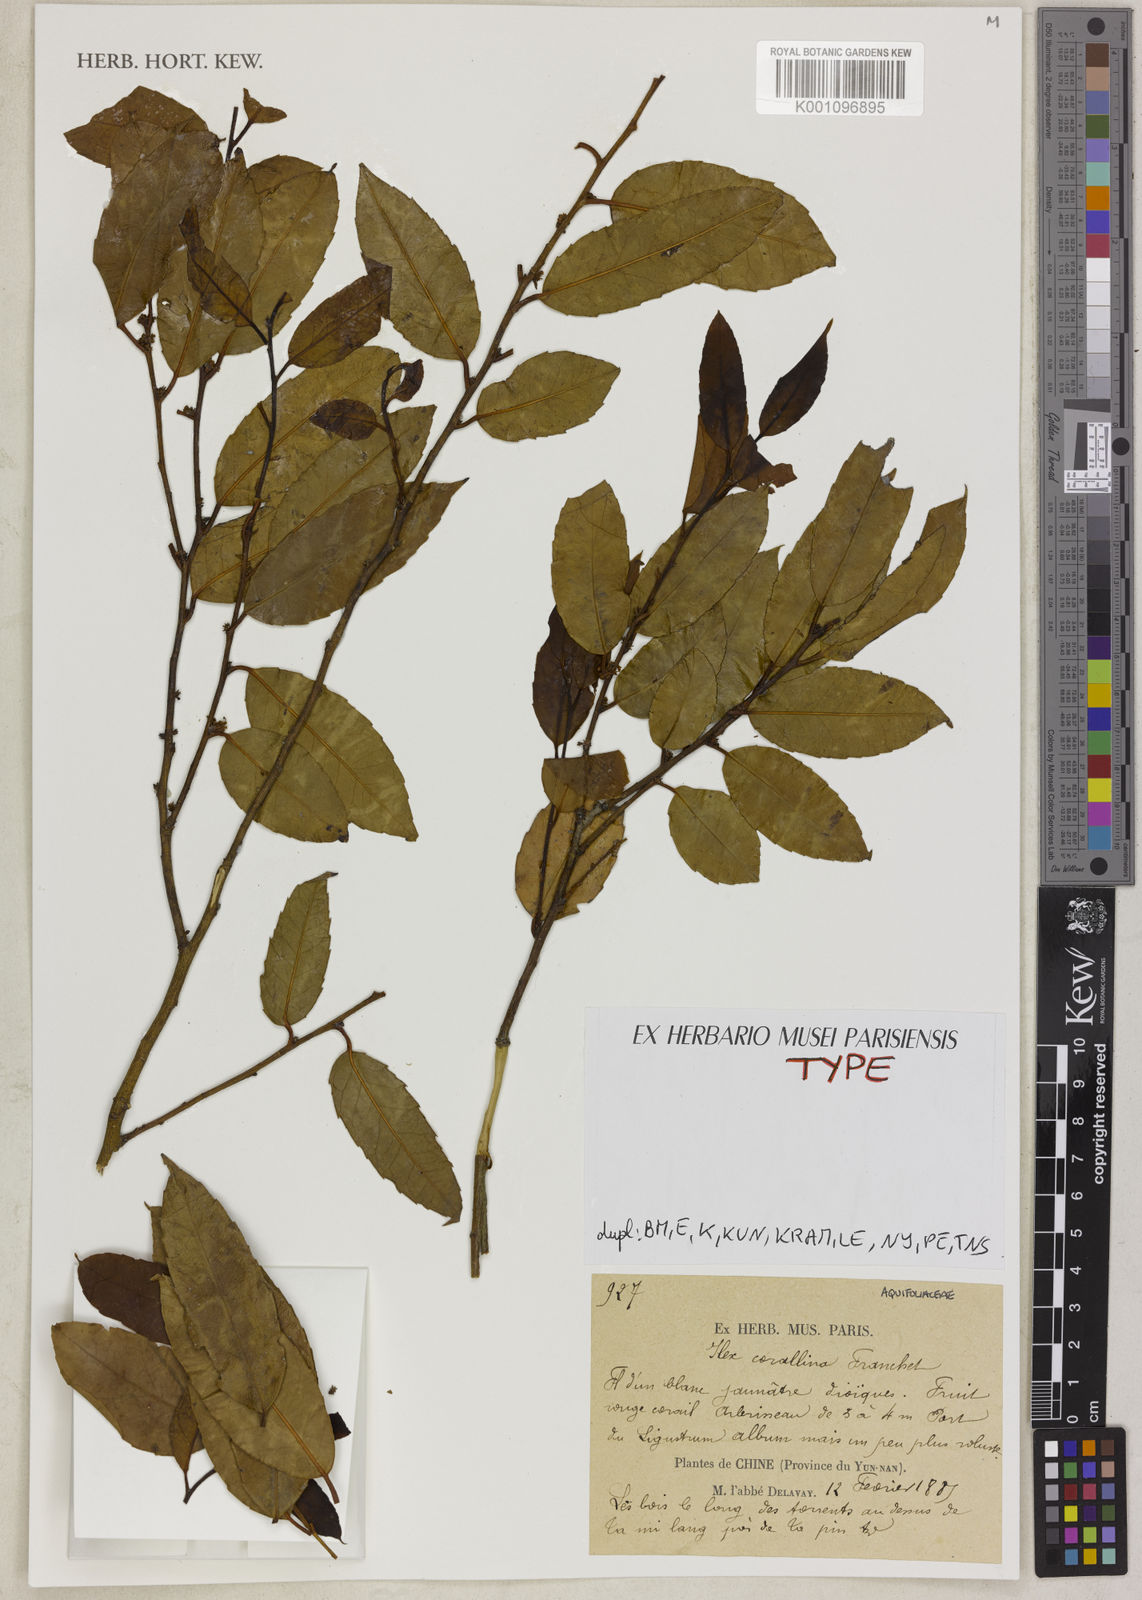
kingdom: Plantae
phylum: Tracheophyta
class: Magnoliopsida
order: Aquifoliales
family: Aquifoliaceae
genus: Ilex
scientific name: Ilex corallina
